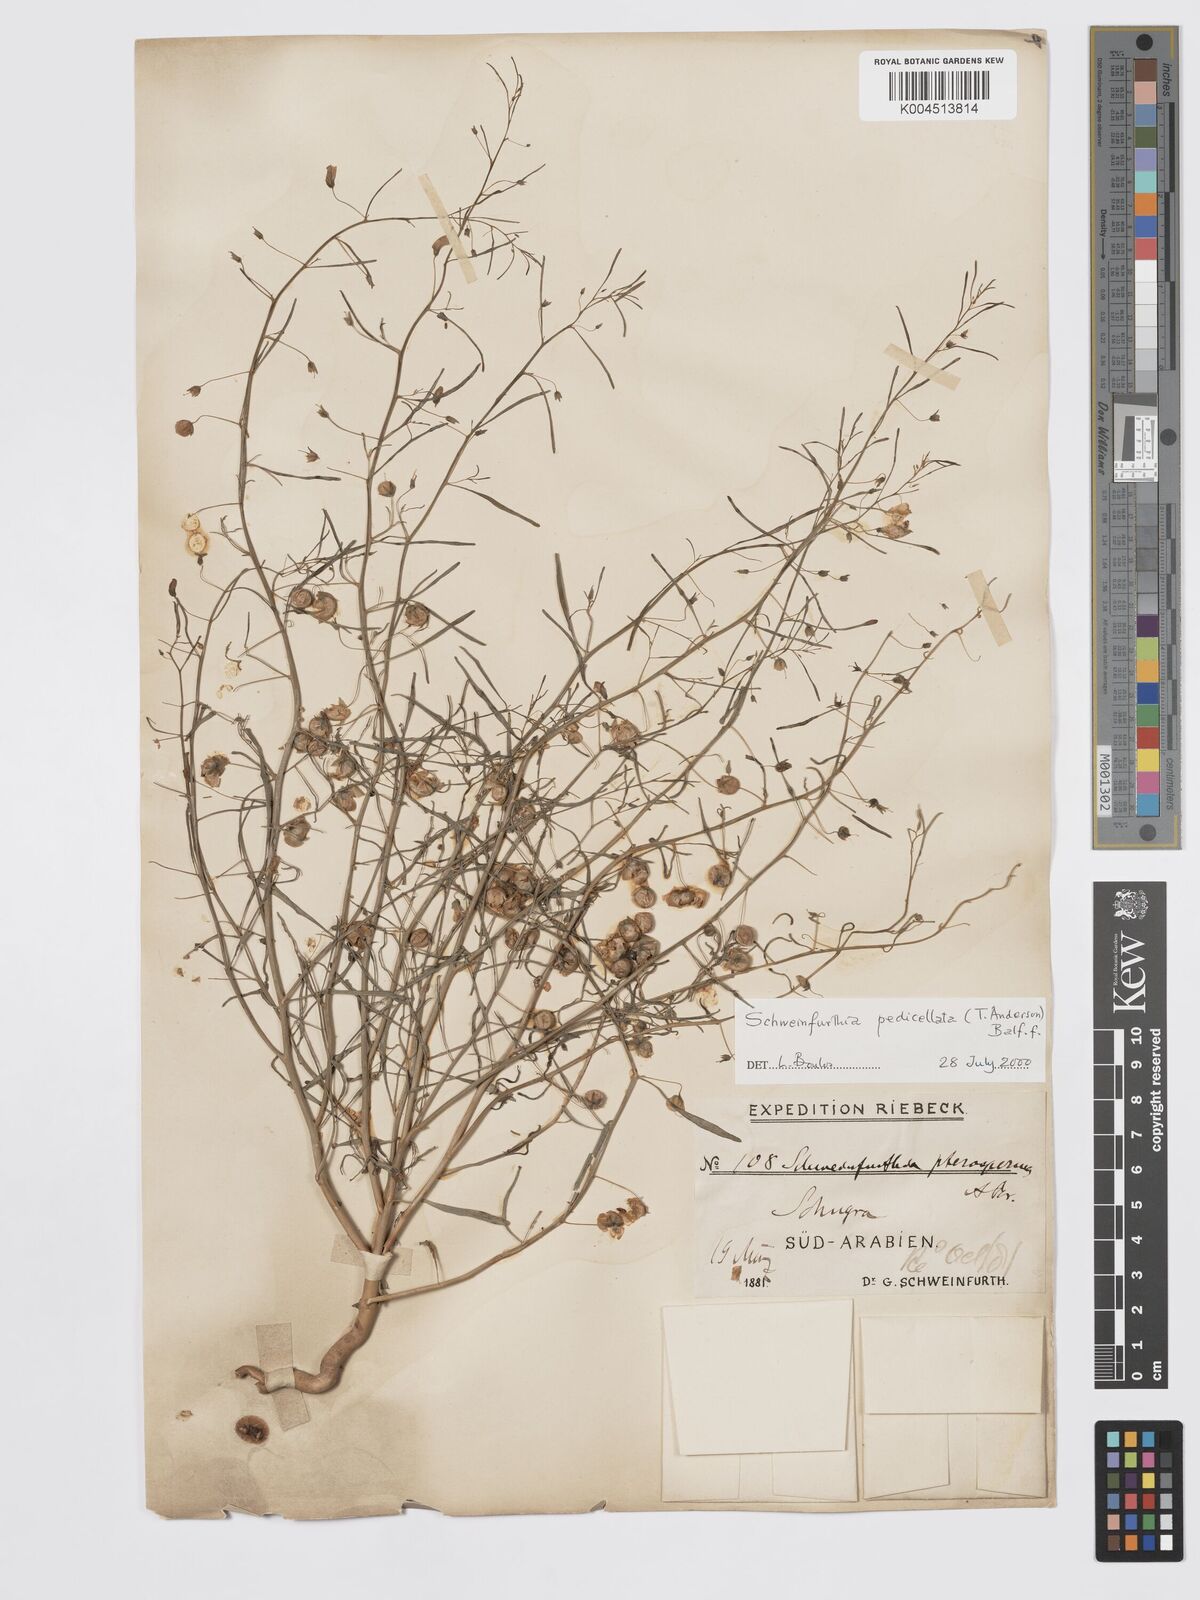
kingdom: Plantae
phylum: Tracheophyta
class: Magnoliopsida
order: Lamiales
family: Plantaginaceae
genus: Schweinfurthia
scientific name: Schweinfurthia pedicellata
